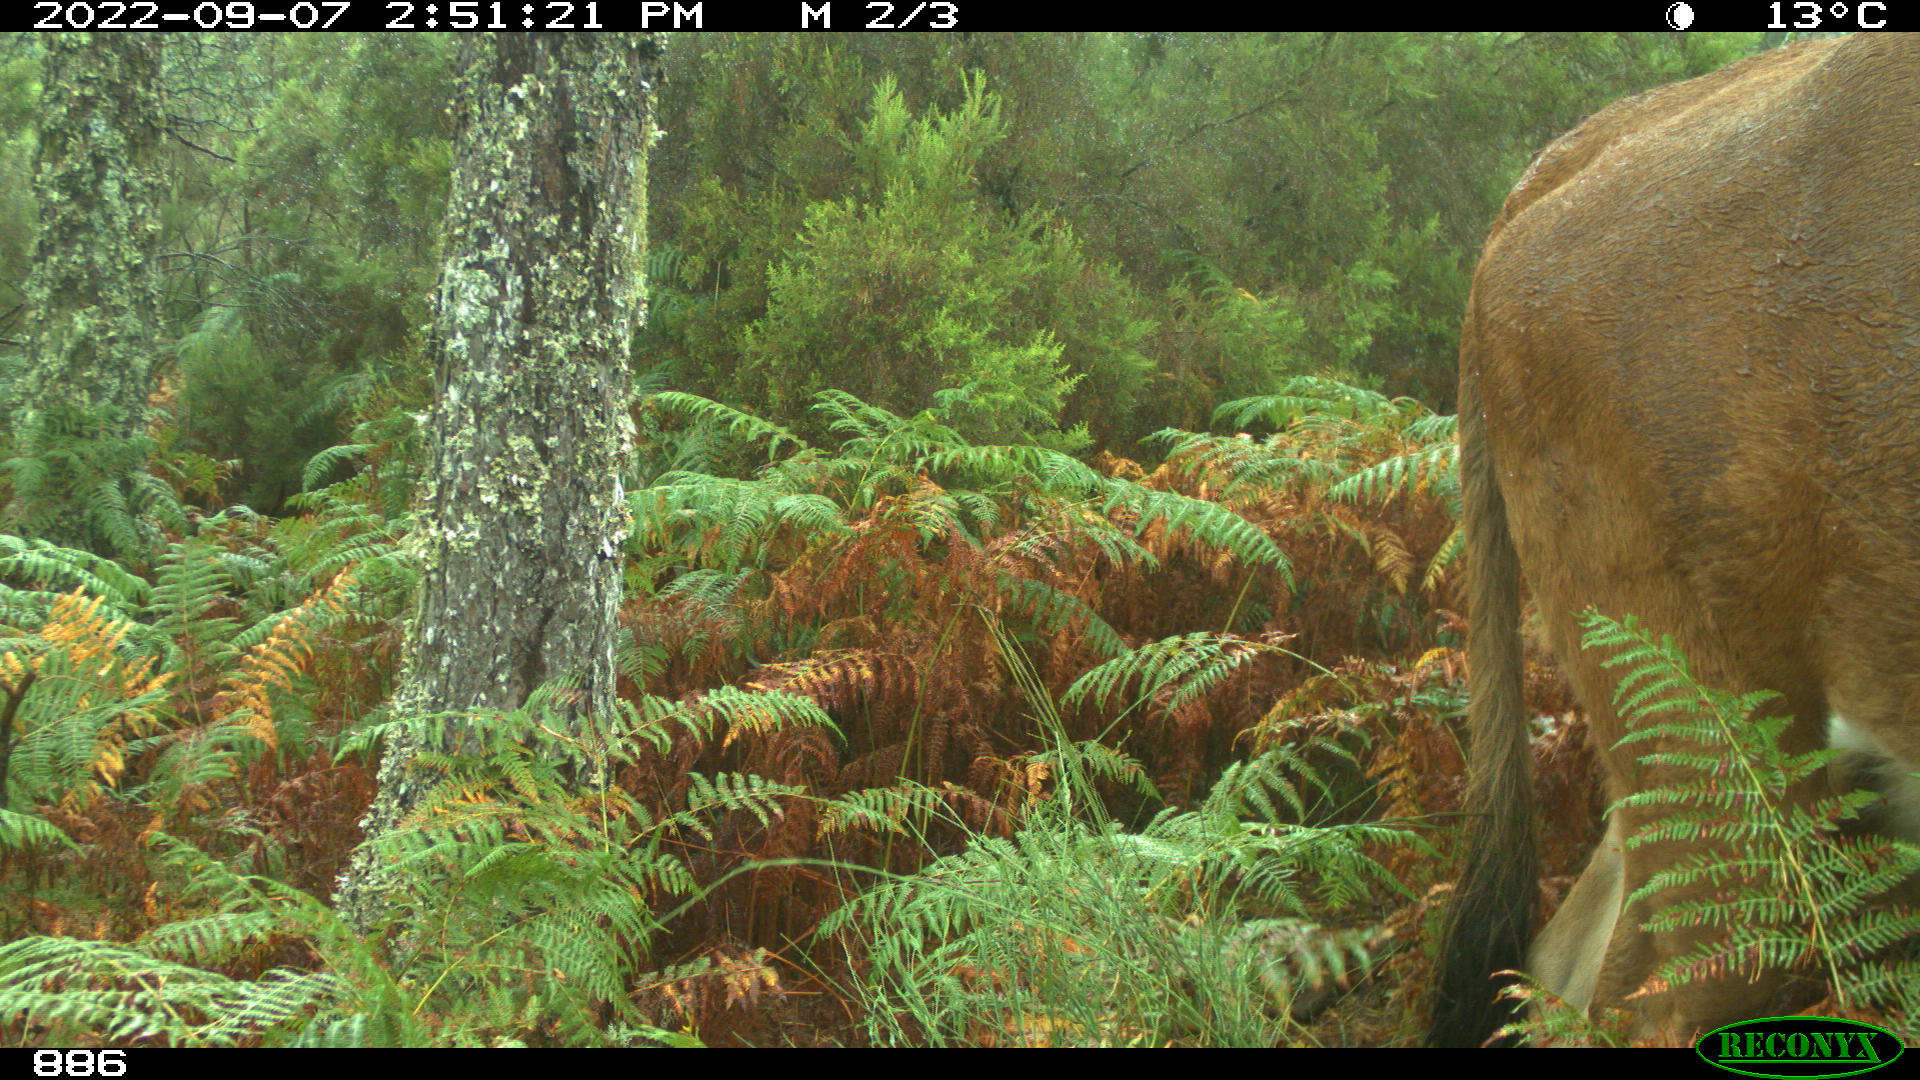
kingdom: Animalia
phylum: Chordata
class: Mammalia
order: Artiodactyla
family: Bovidae
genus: Bos
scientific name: Bos taurus
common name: Domesticated cattle
